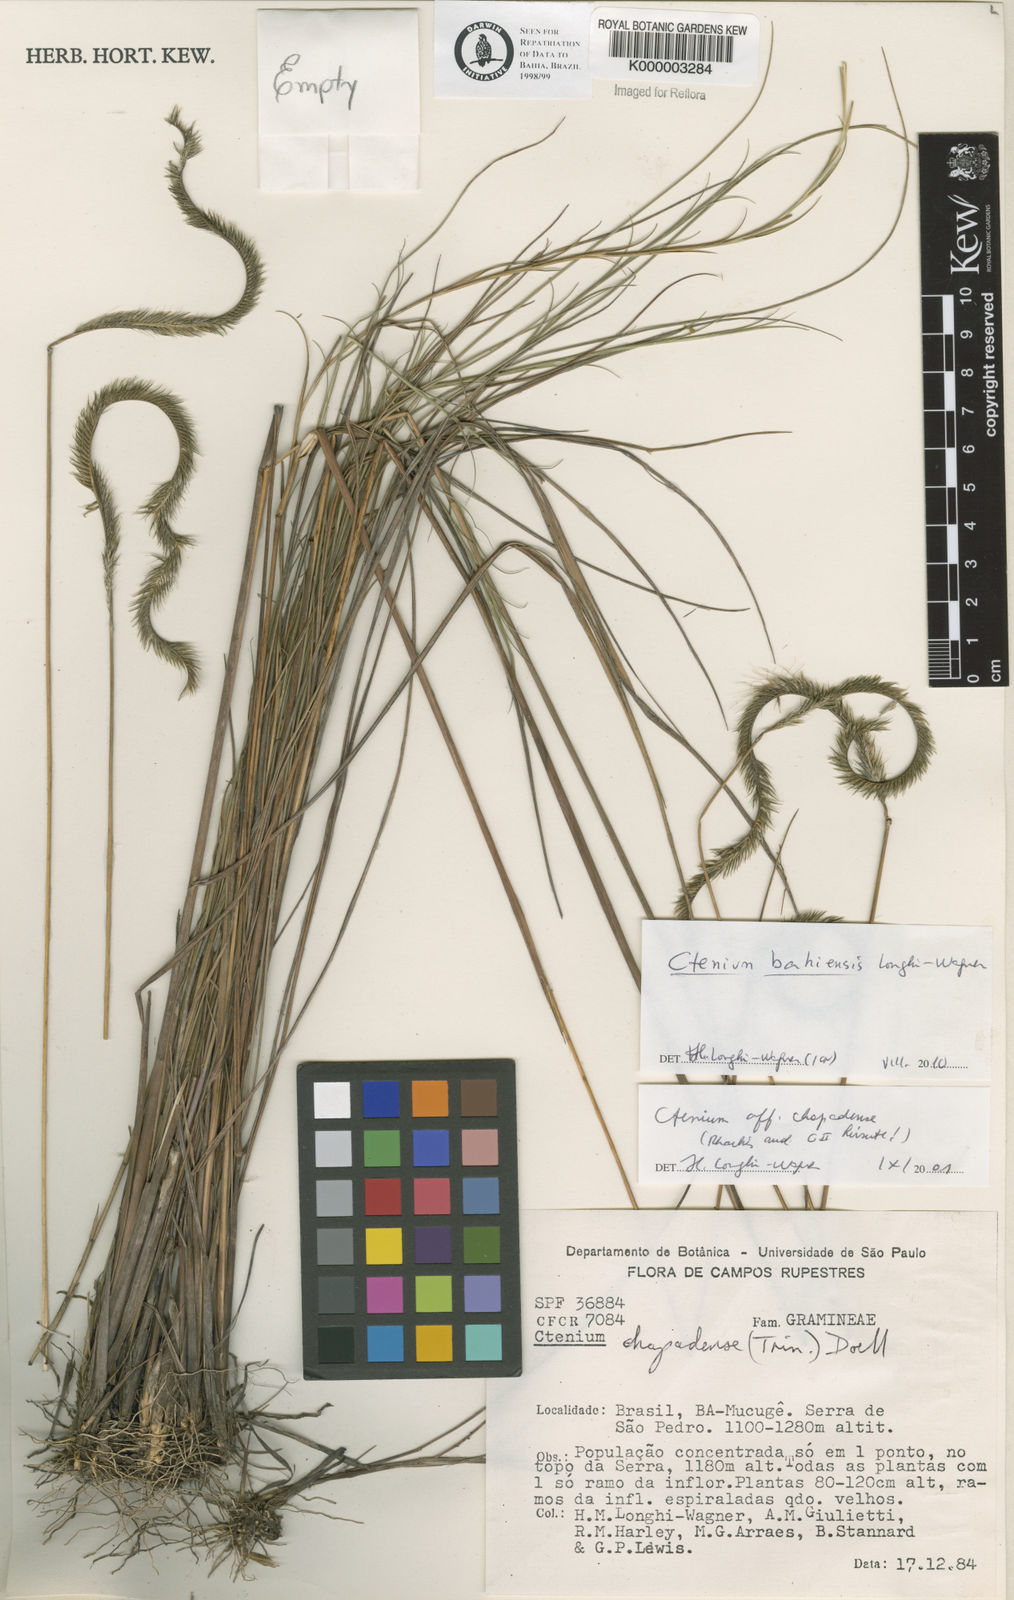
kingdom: Plantae
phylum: Tracheophyta
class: Liliopsida
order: Poales
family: Poaceae
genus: Ctenium
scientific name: Ctenium
